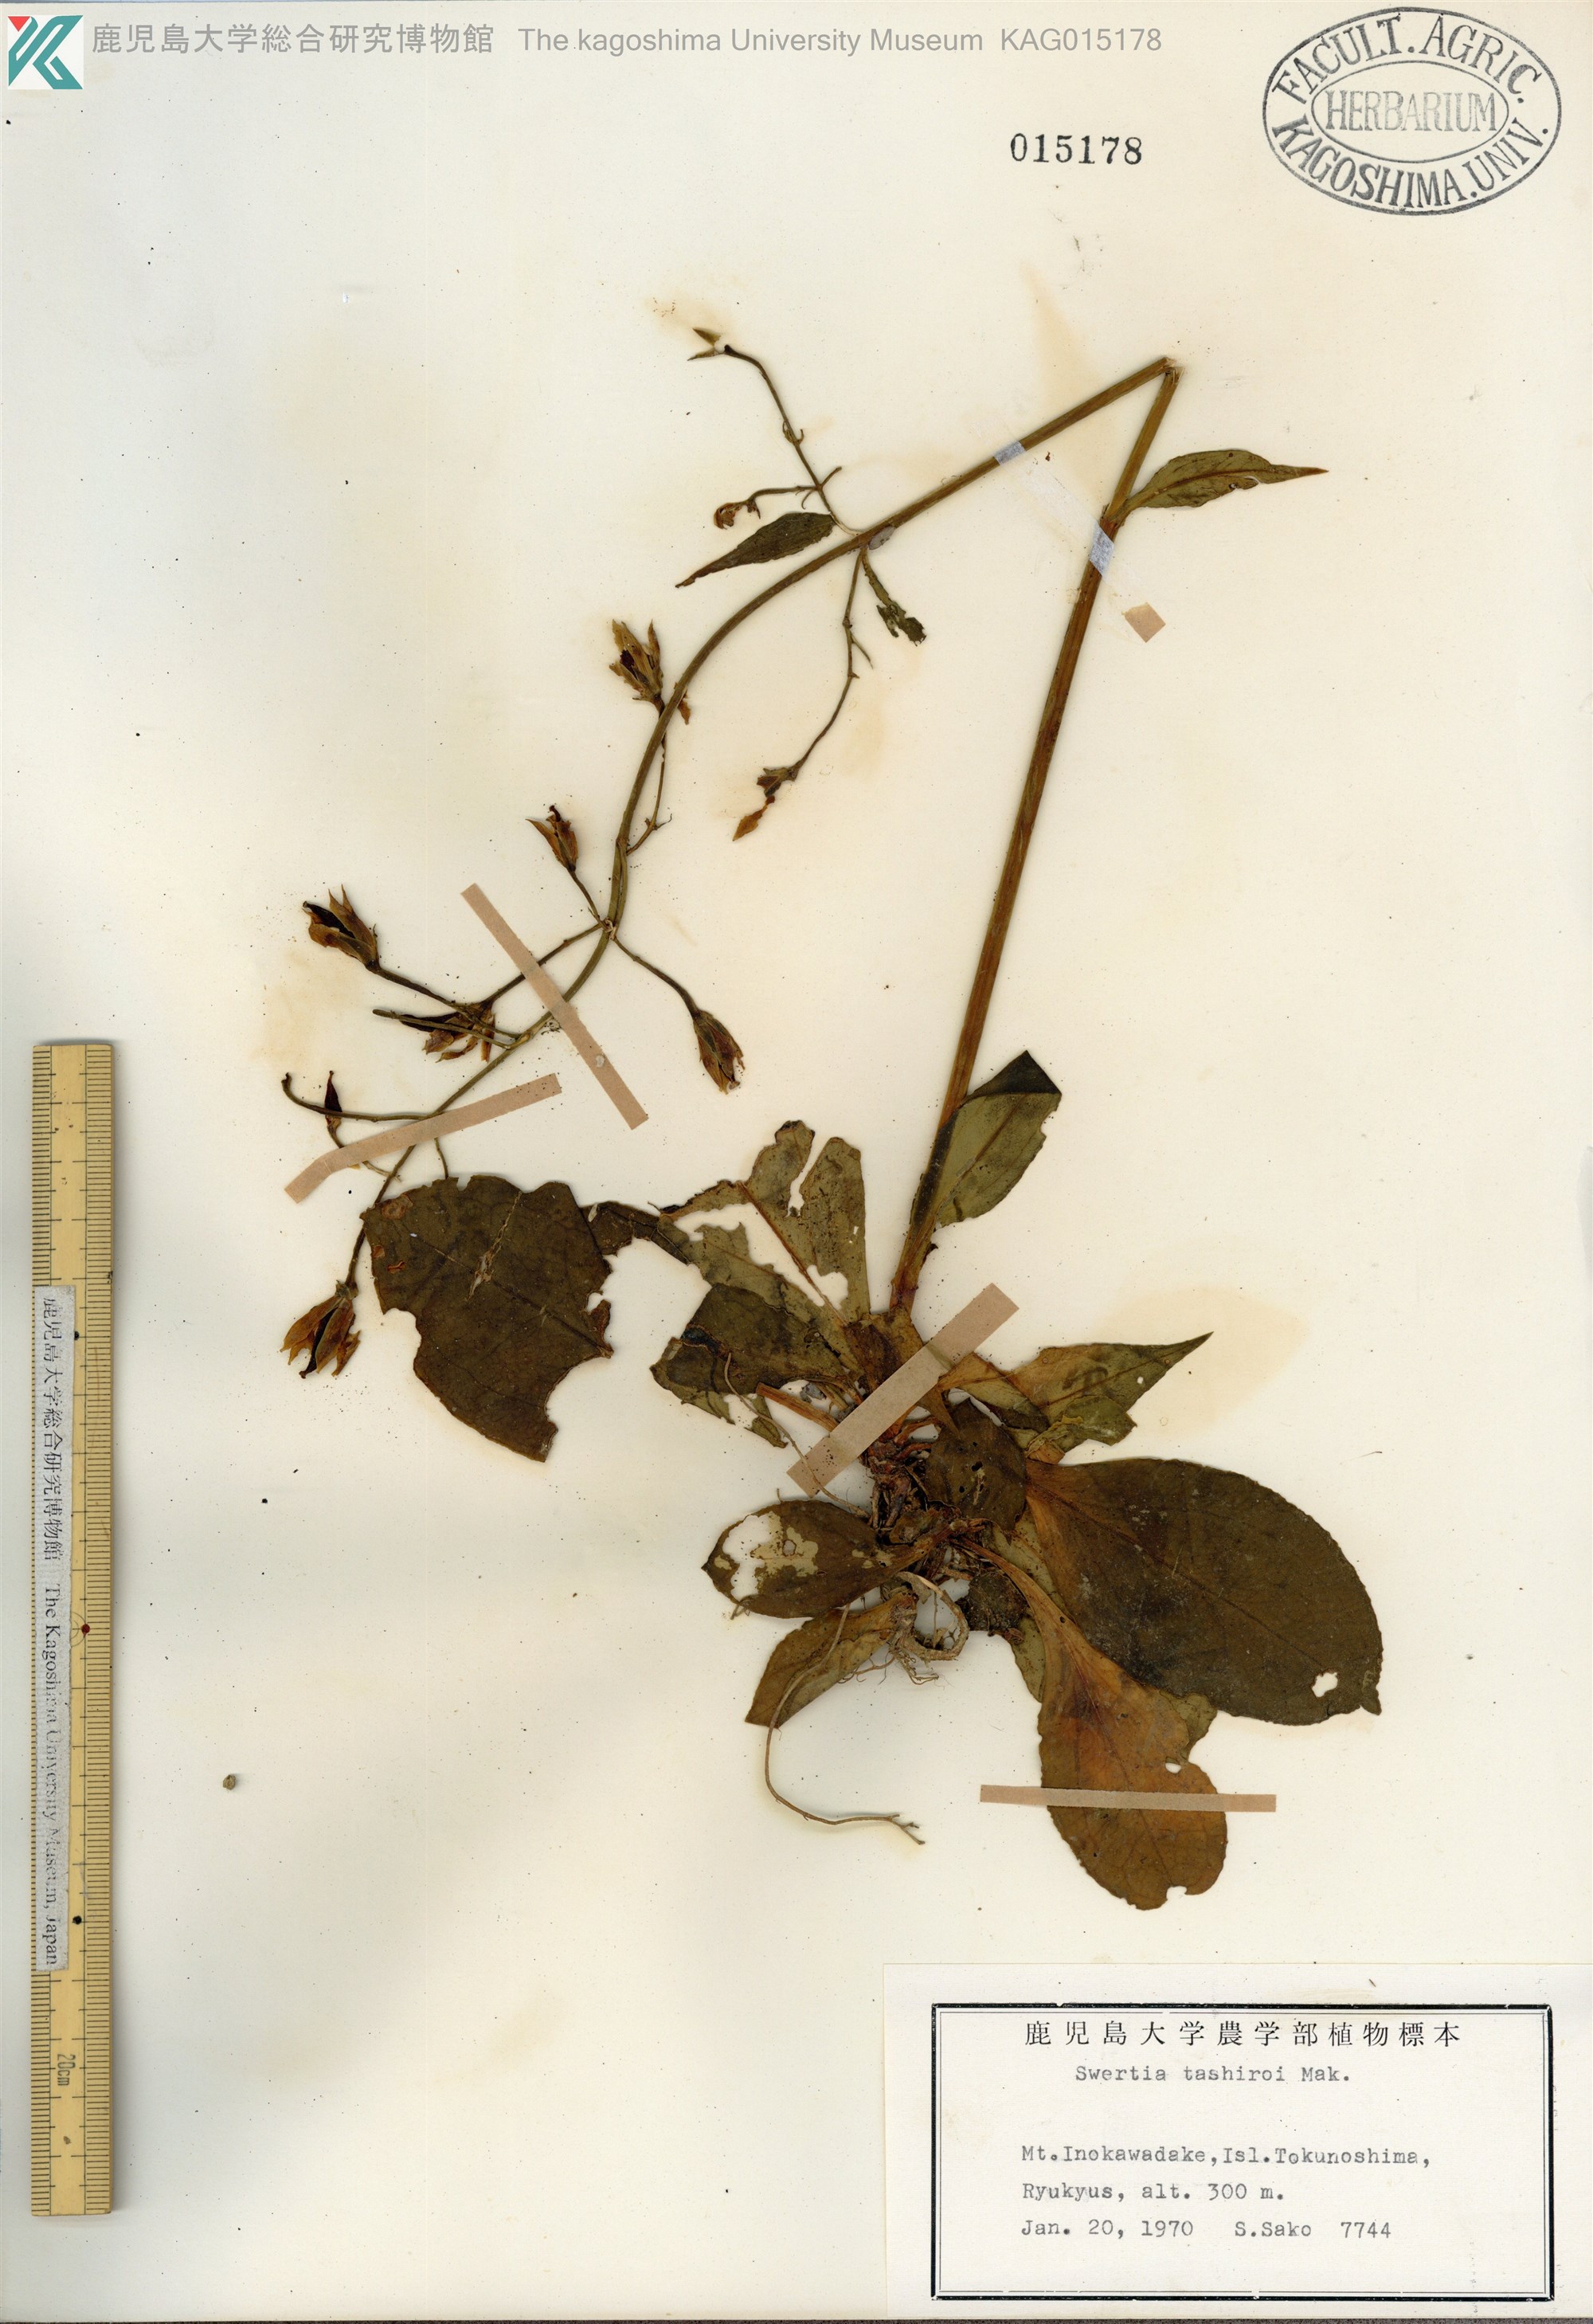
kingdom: Plantae
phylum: Tracheophyta
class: Magnoliopsida
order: Gentianales
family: Gentianaceae
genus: Swertia
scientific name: Swertia tashiroi
